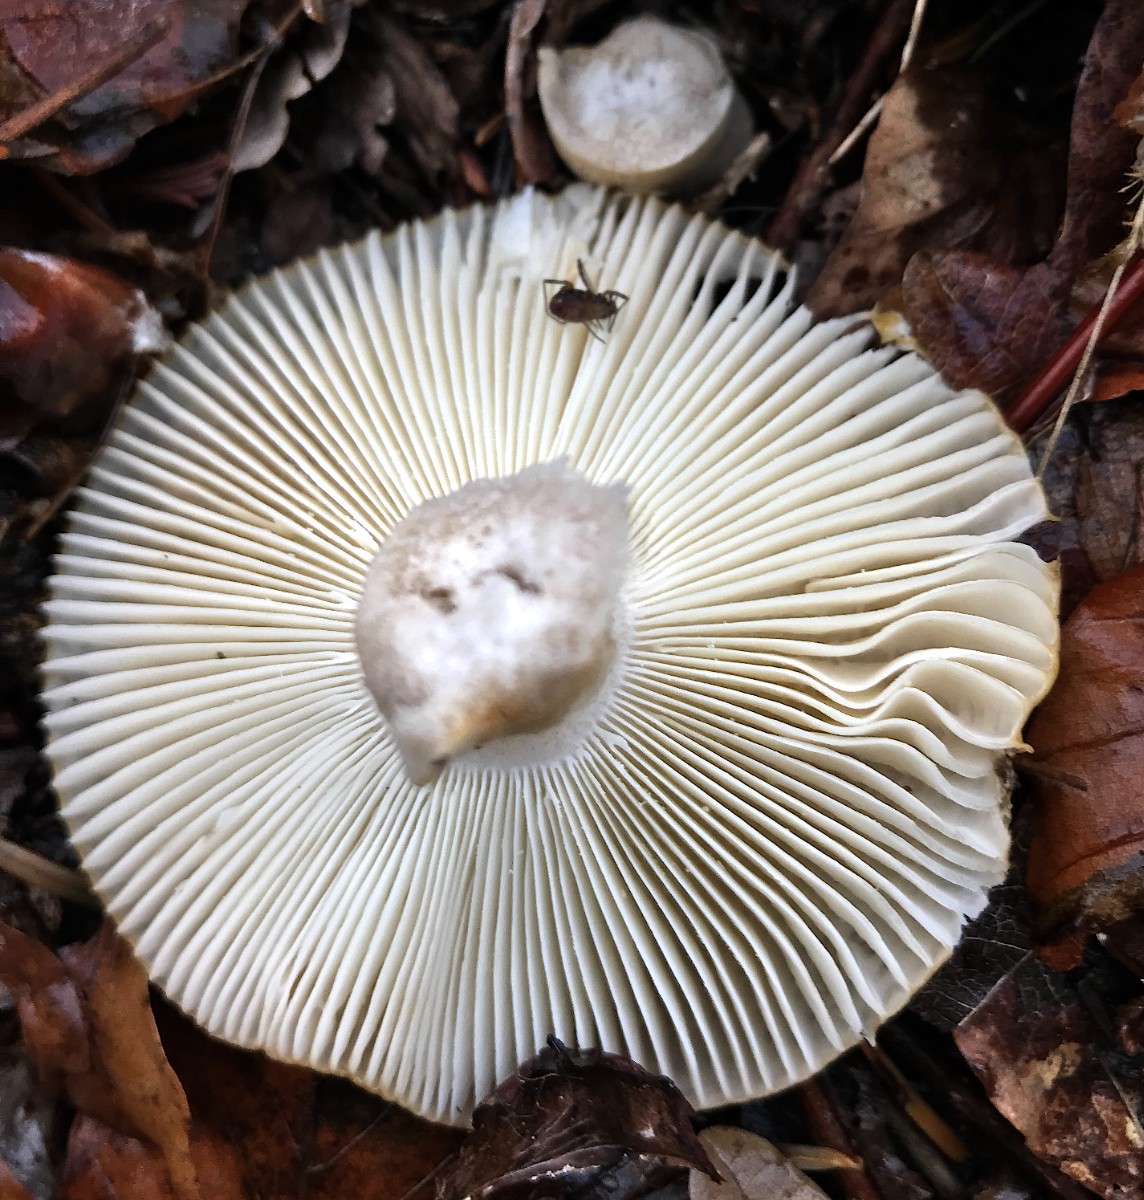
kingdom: Fungi
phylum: Basidiomycota
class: Agaricomycetes
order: Russulales
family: Russulaceae
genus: Russula
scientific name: Russula ochroleuca
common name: okkergul skørhat
